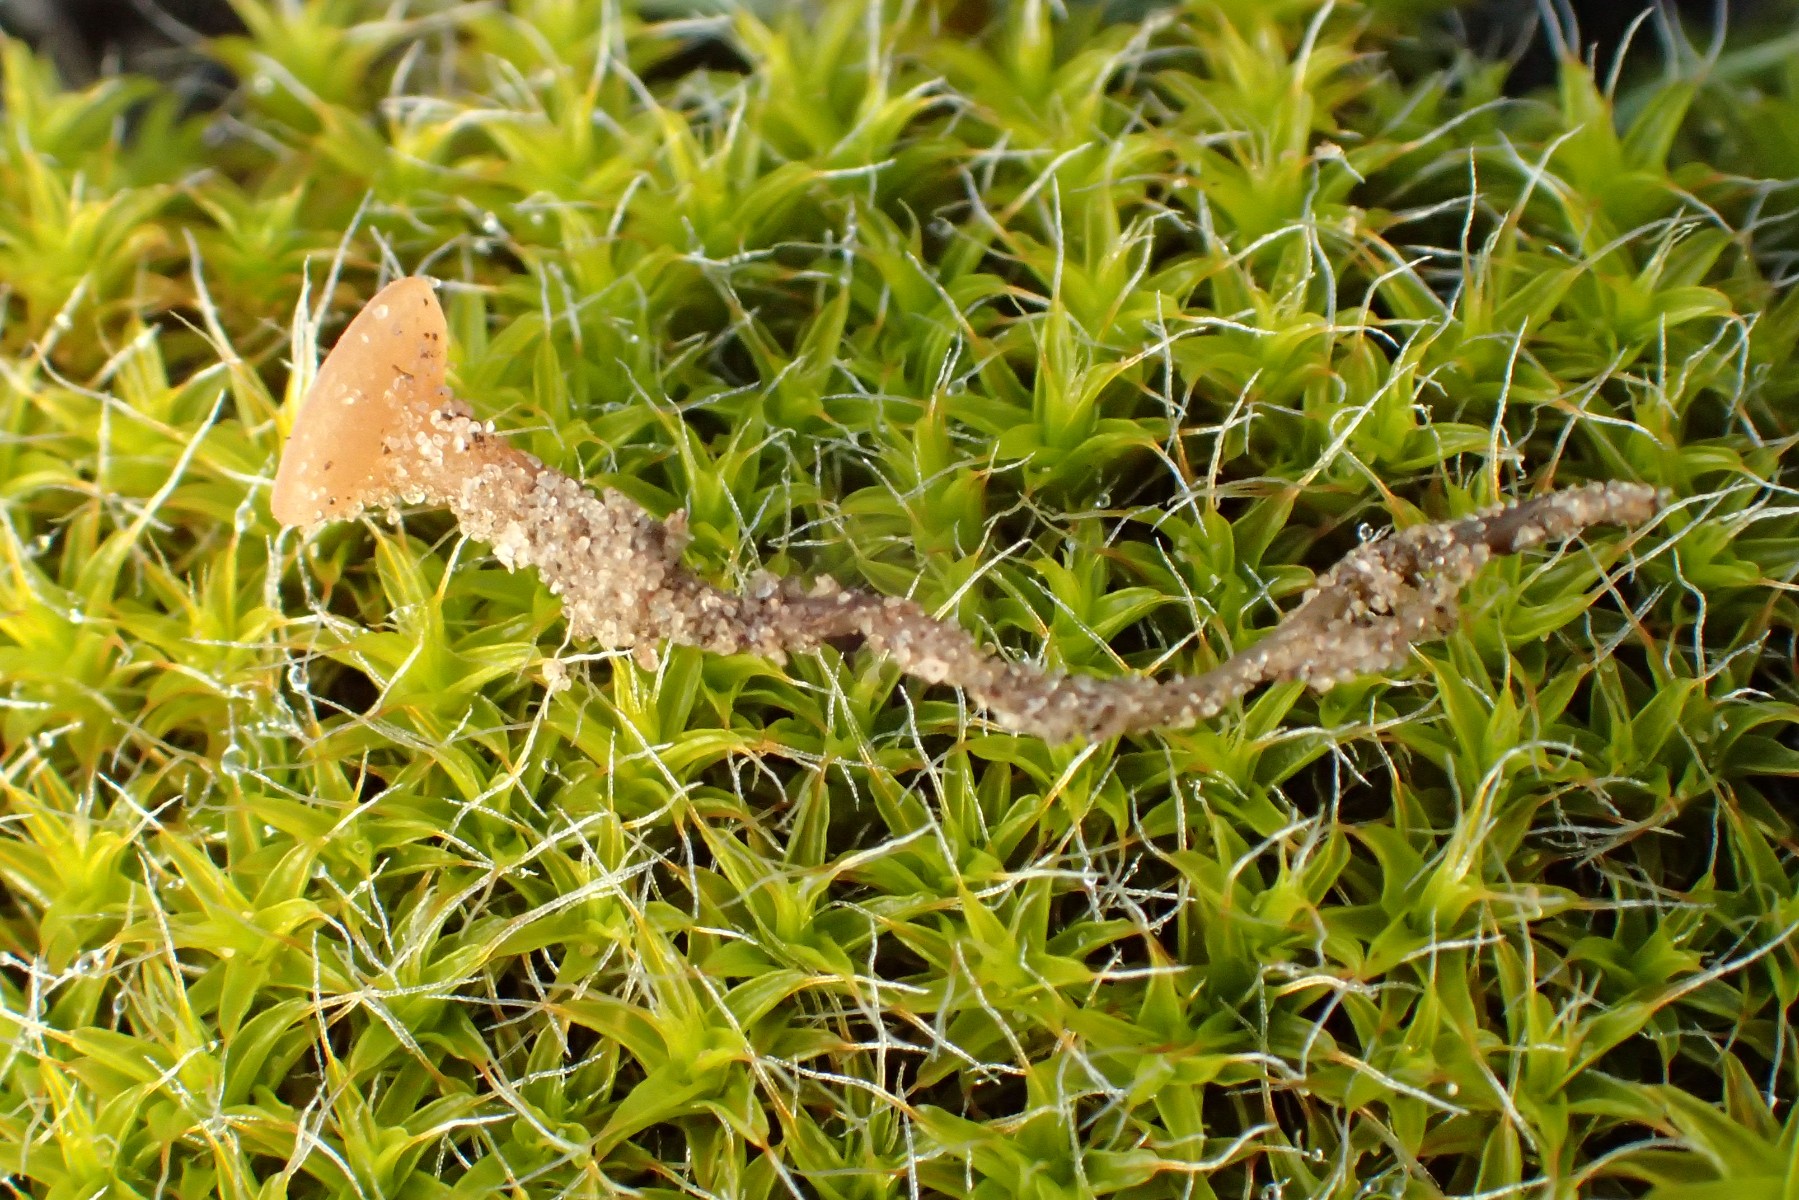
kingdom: Fungi
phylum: Ascomycota
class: Leotiomycetes
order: Helotiales
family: Sclerotiniaceae
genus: Sclerotinia
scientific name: Sclerotinia trifoliorum
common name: ærte-knoldskive
